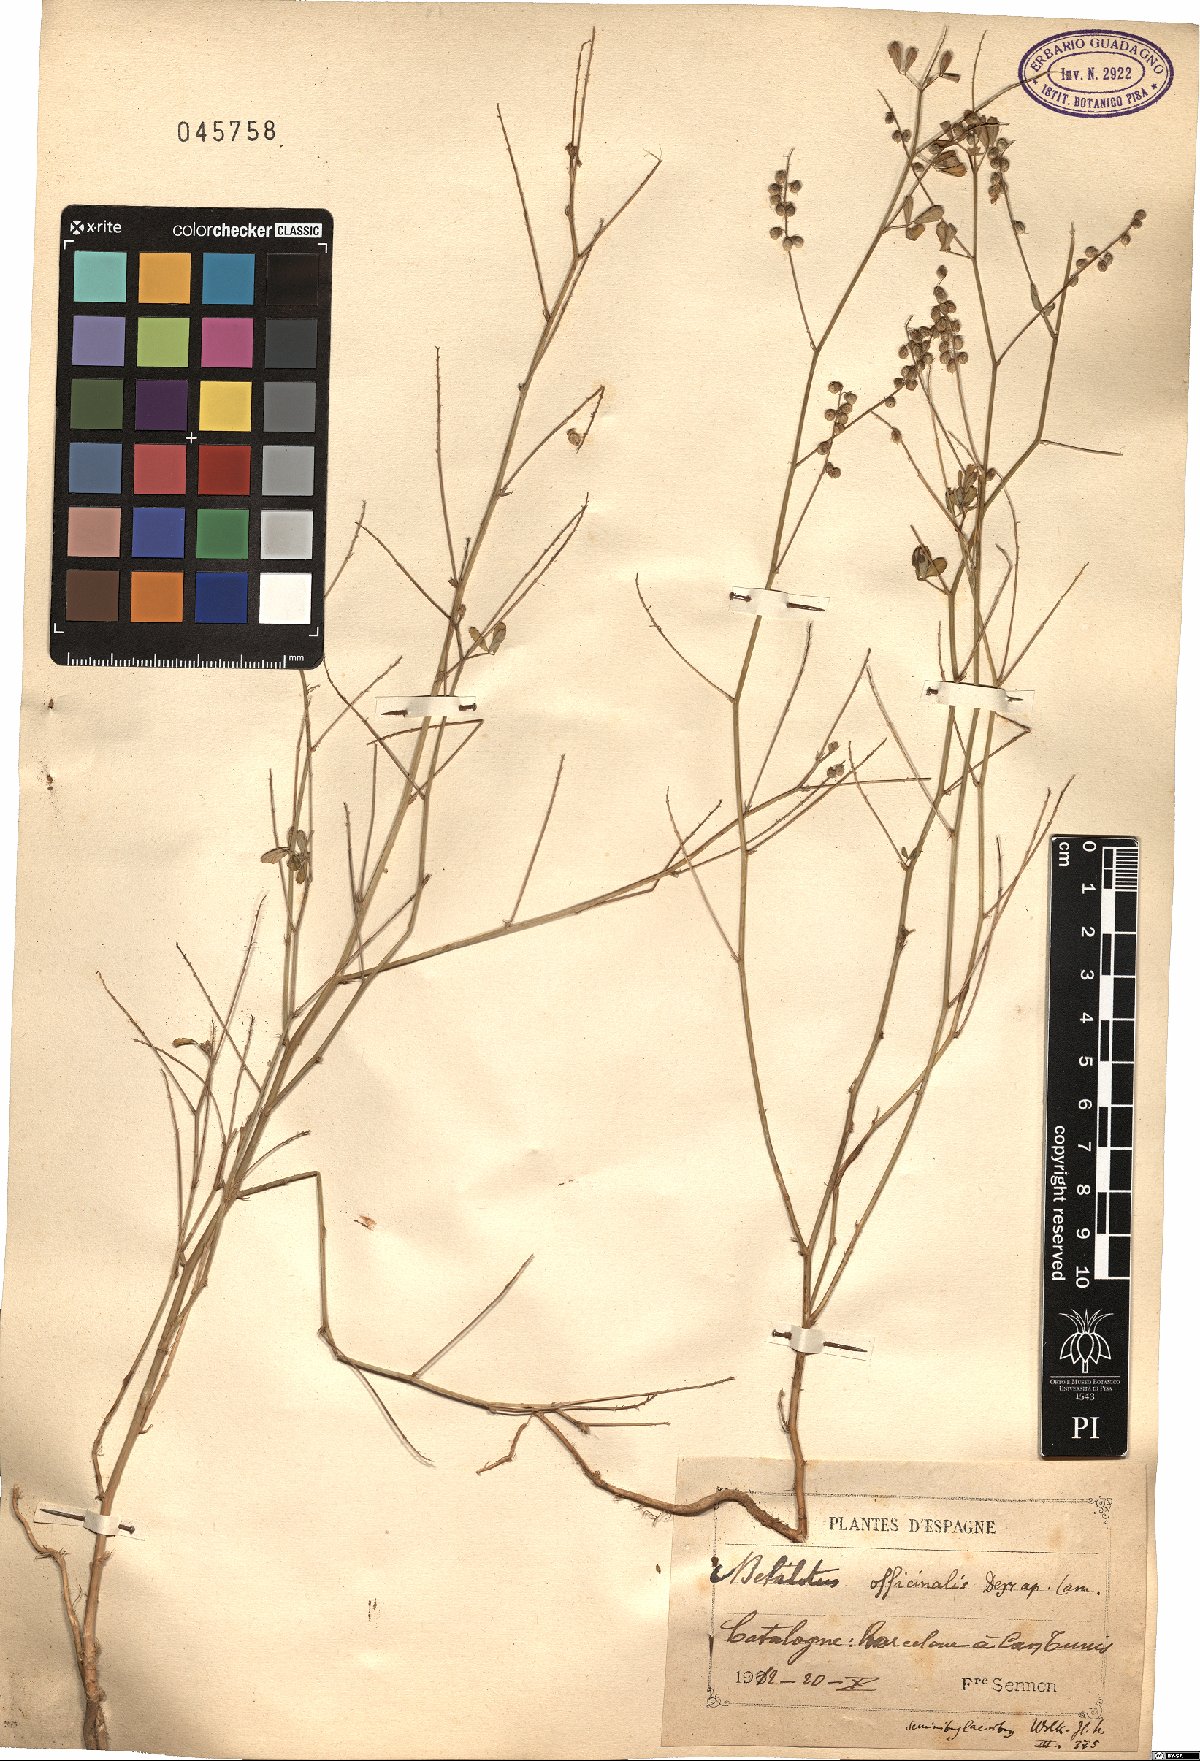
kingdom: Plantae
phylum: Tracheophyta
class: Magnoliopsida
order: Fabales
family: Fabaceae
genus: Melilotus
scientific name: Melilotus officinalis
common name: Sweetclover
